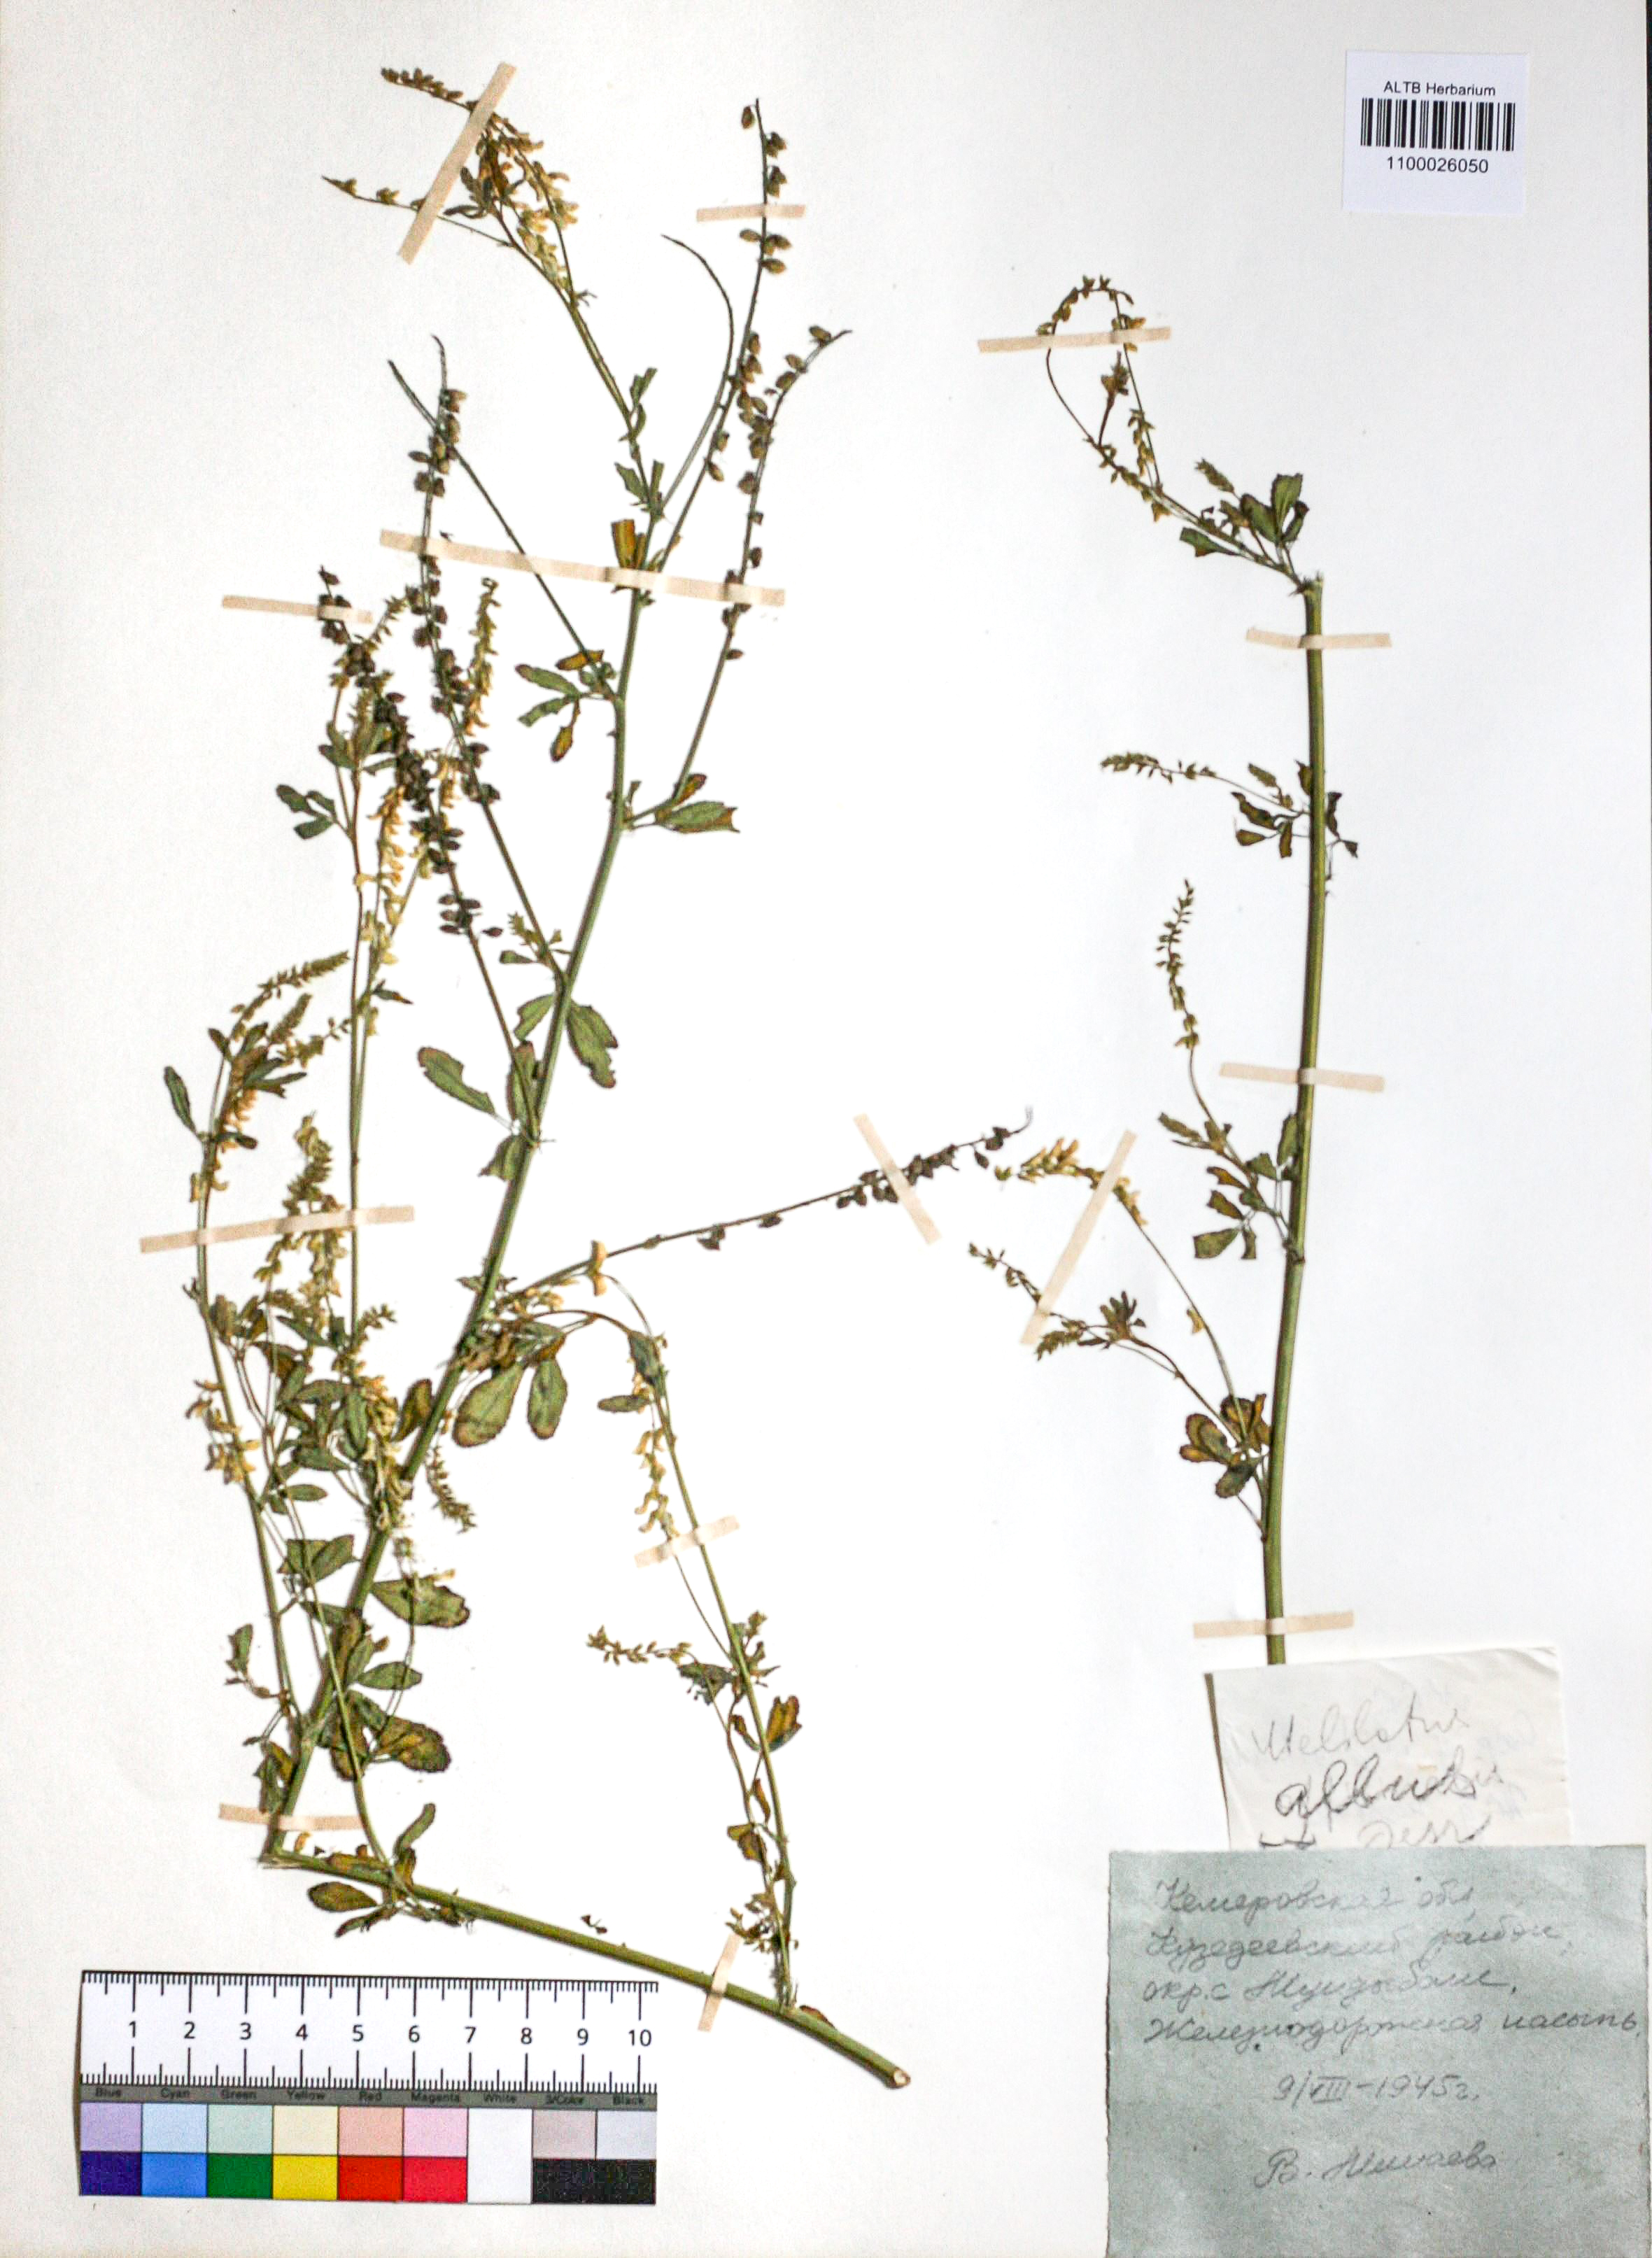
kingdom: Plantae
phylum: Tracheophyta
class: Magnoliopsida
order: Fabales
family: Fabaceae
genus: Melilotus
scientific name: Melilotus albus
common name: White melilot
